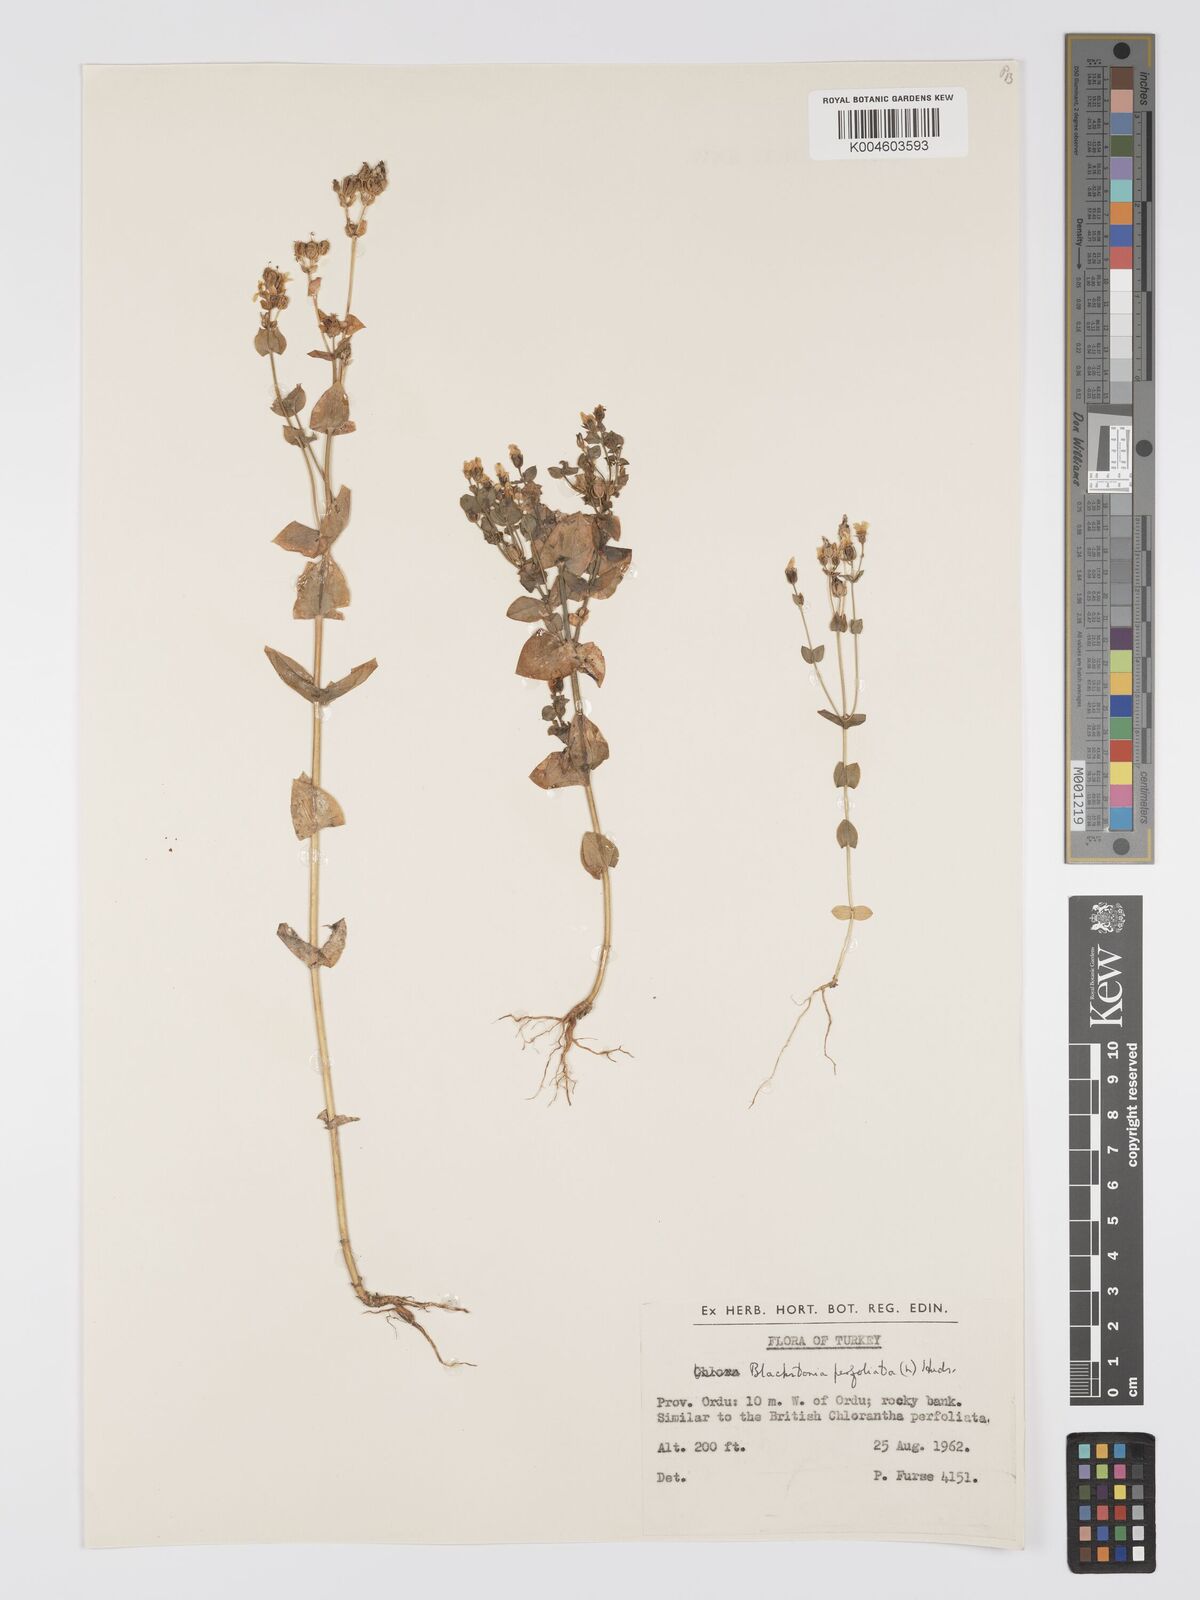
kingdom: Plantae
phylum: Tracheophyta
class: Magnoliopsida
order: Gentianales
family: Gentianaceae
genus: Blackstonia
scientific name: Blackstonia perfoliata
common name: Yellow-wort
